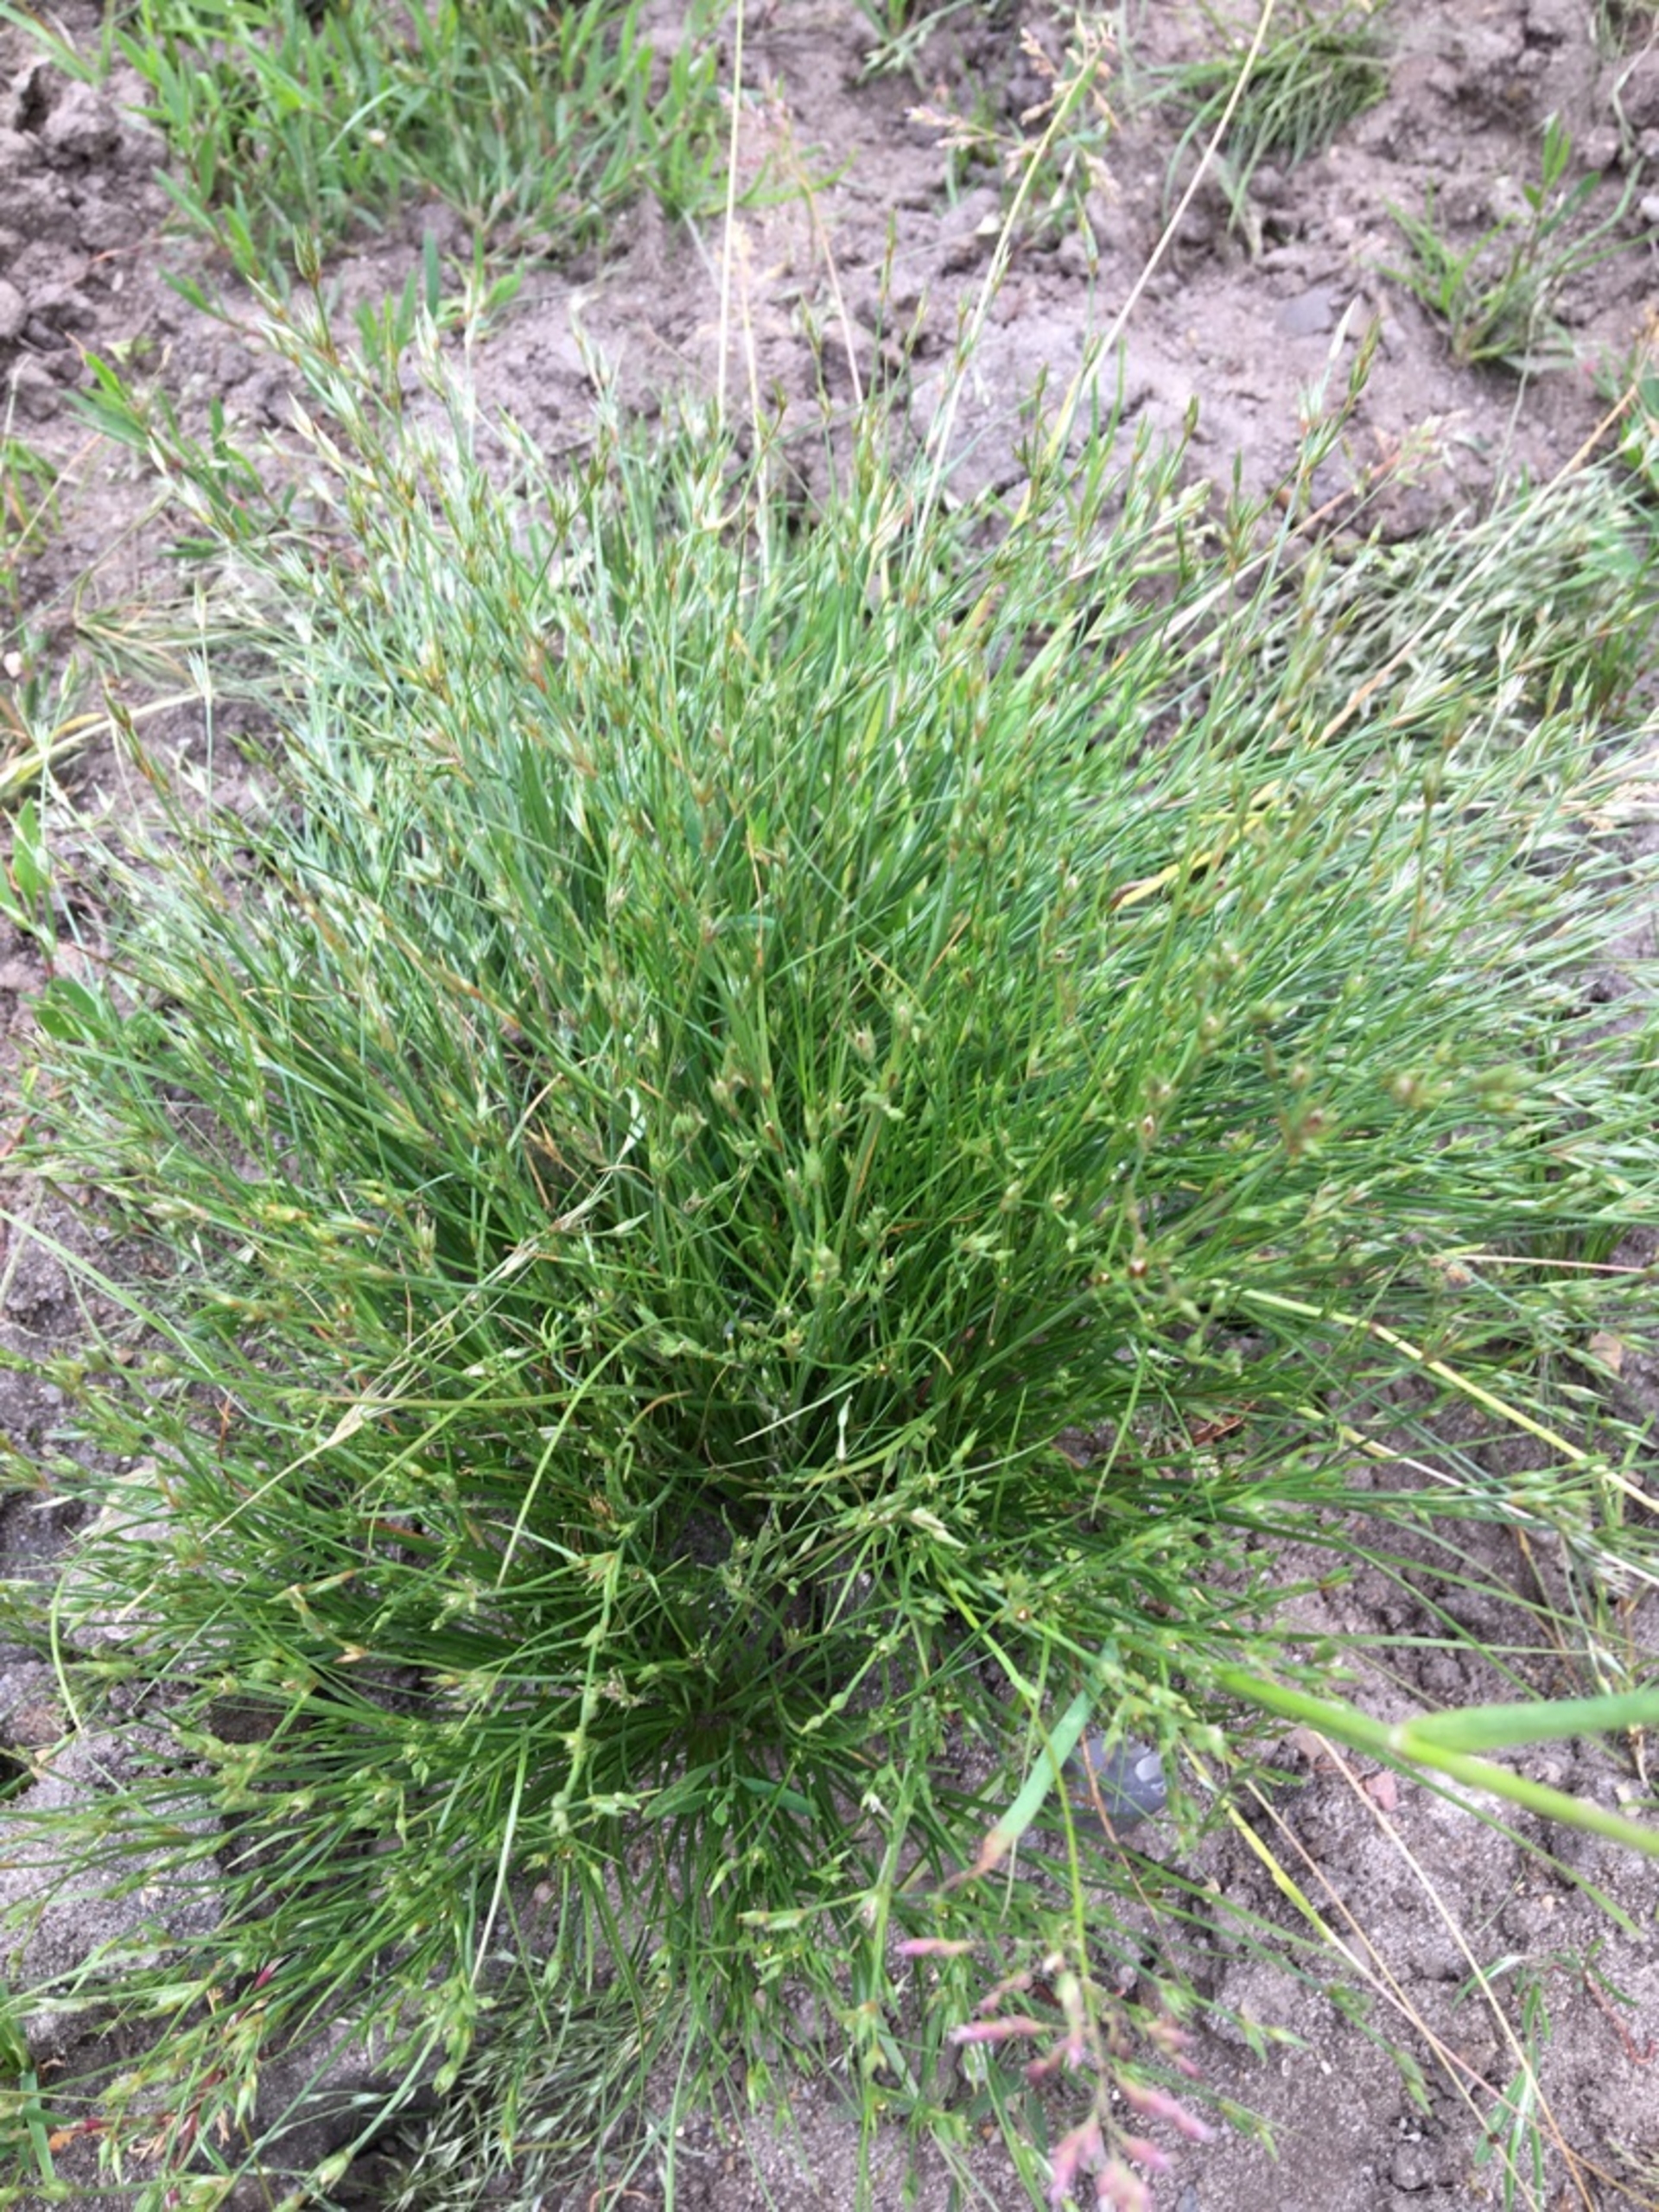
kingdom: Plantae
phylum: Tracheophyta
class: Liliopsida
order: Poales
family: Juncaceae
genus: Juncus
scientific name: Juncus bufonius
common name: Tudse-siv
